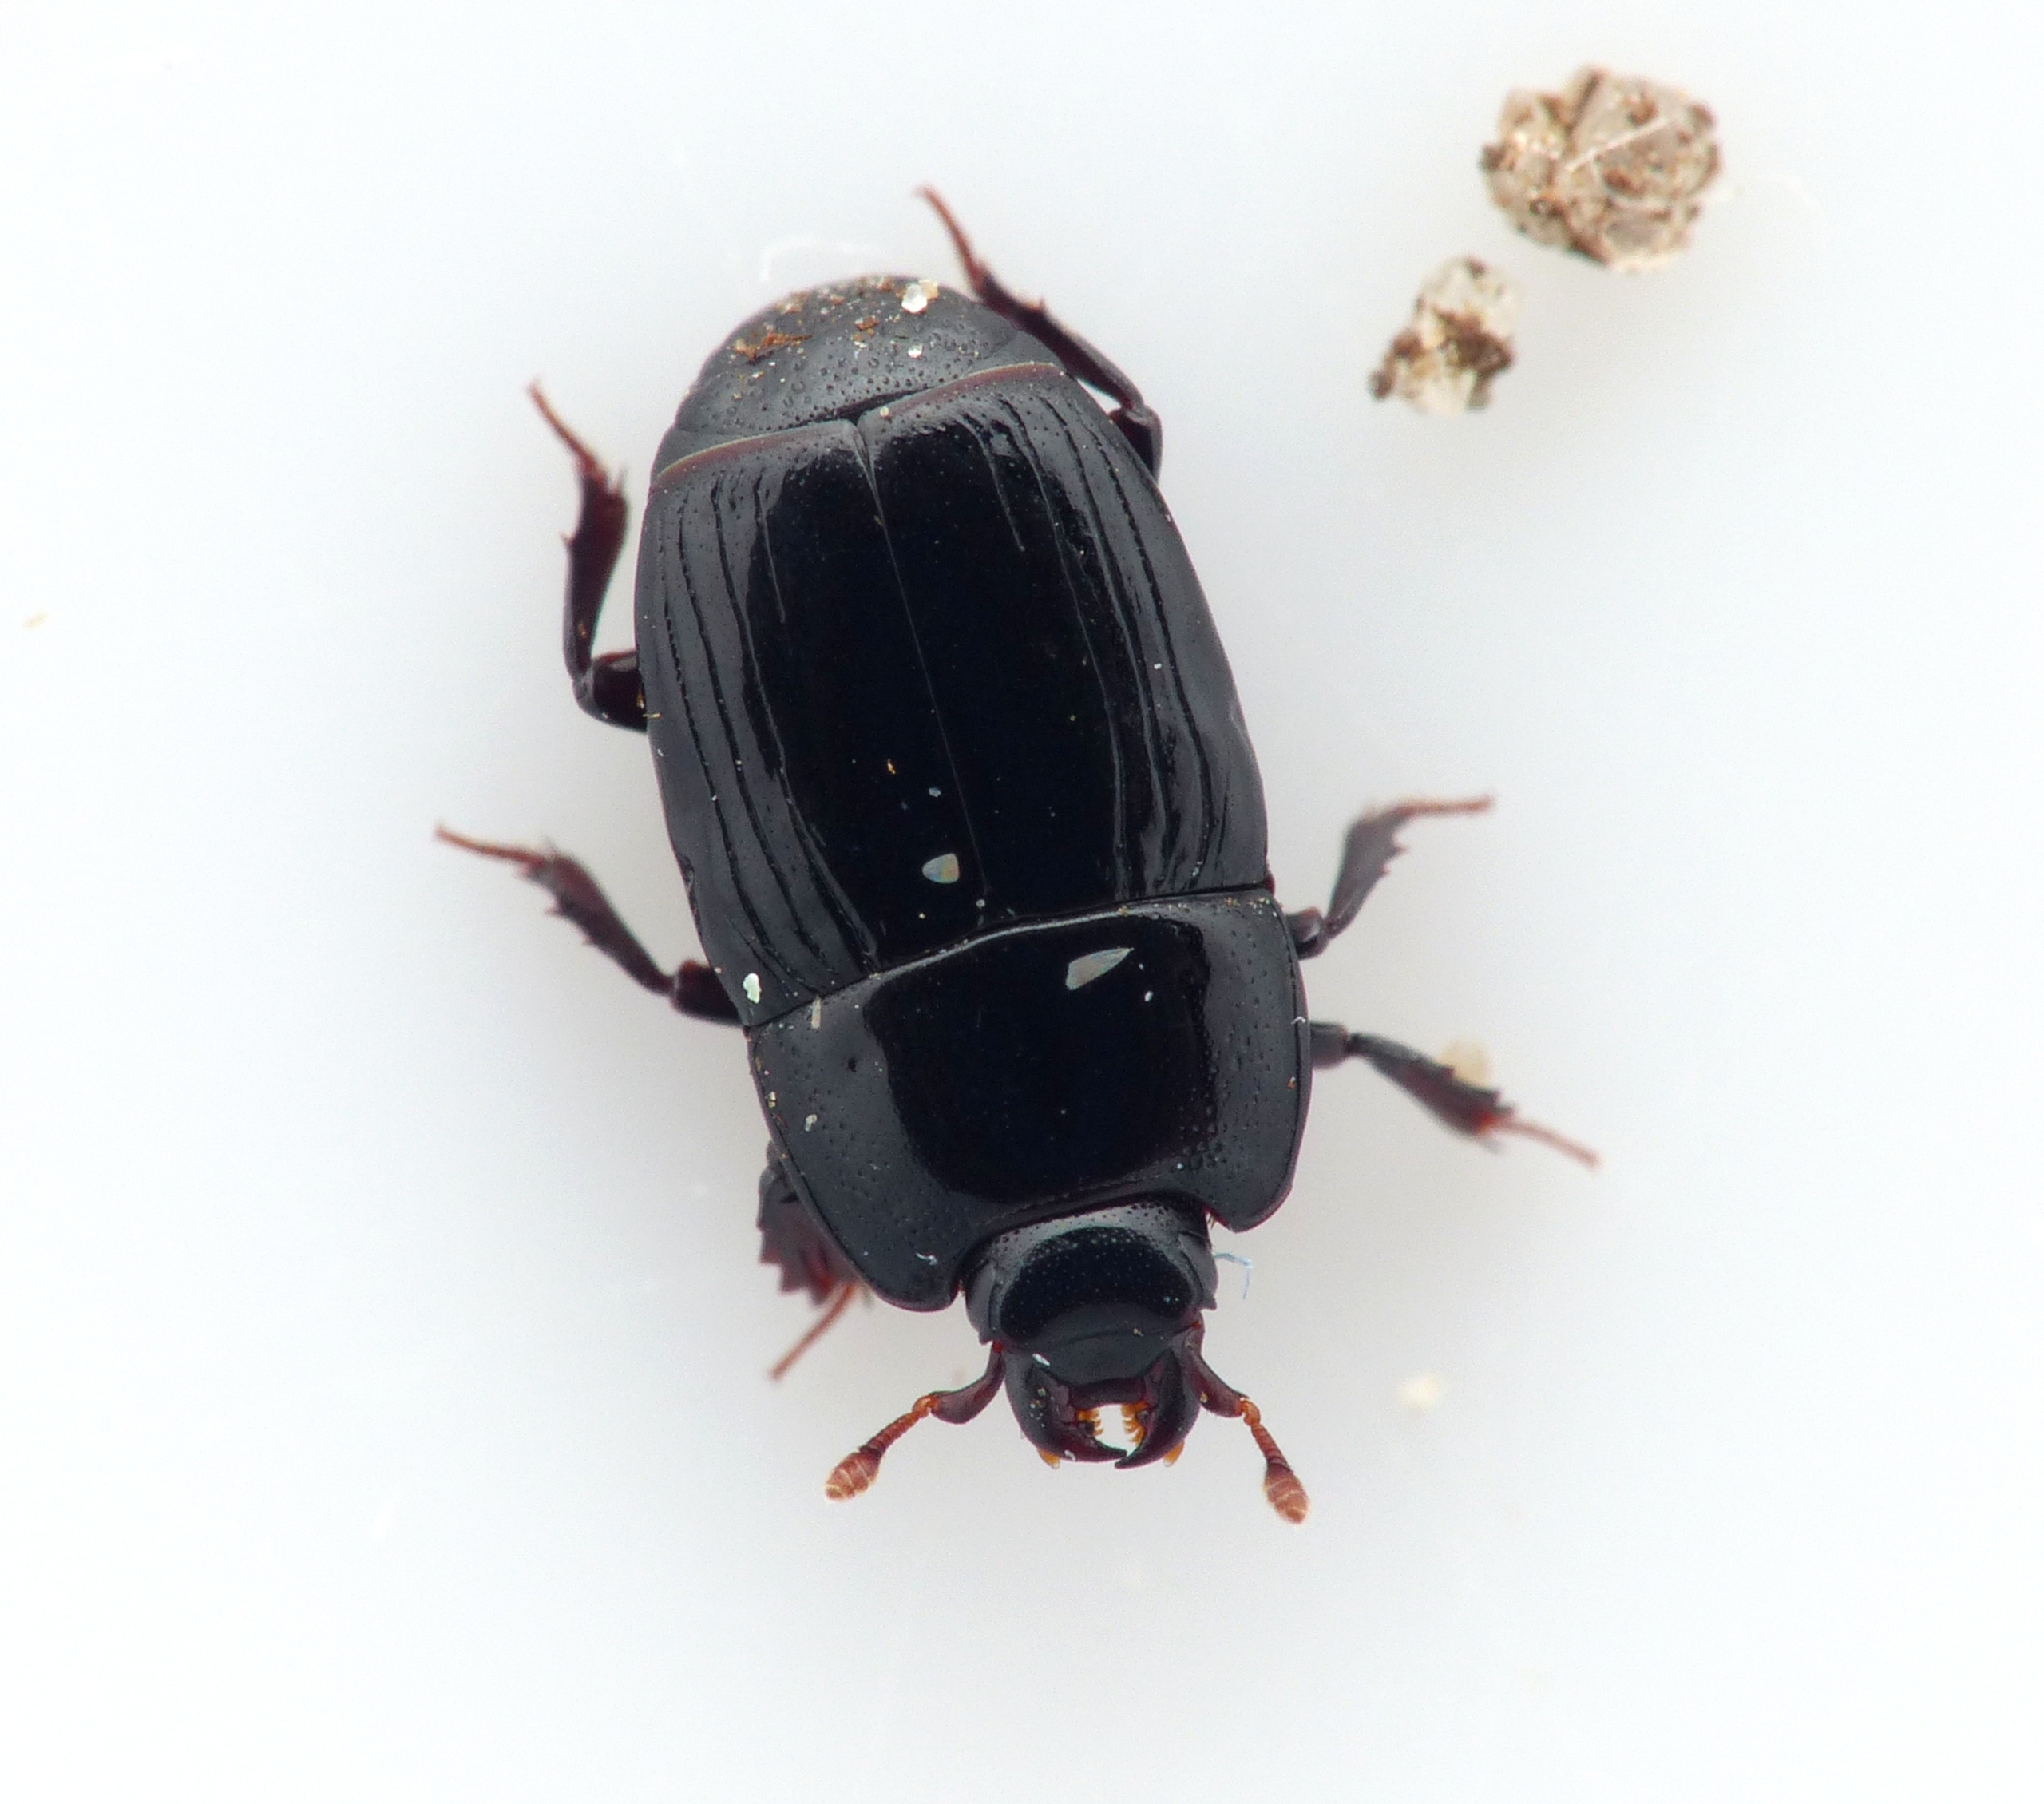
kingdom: Animalia
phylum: Arthropoda
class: Insecta
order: Coleoptera
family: Histeridae
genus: Platysoma
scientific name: Platysoma compressum
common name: Stor barkstumpbille
